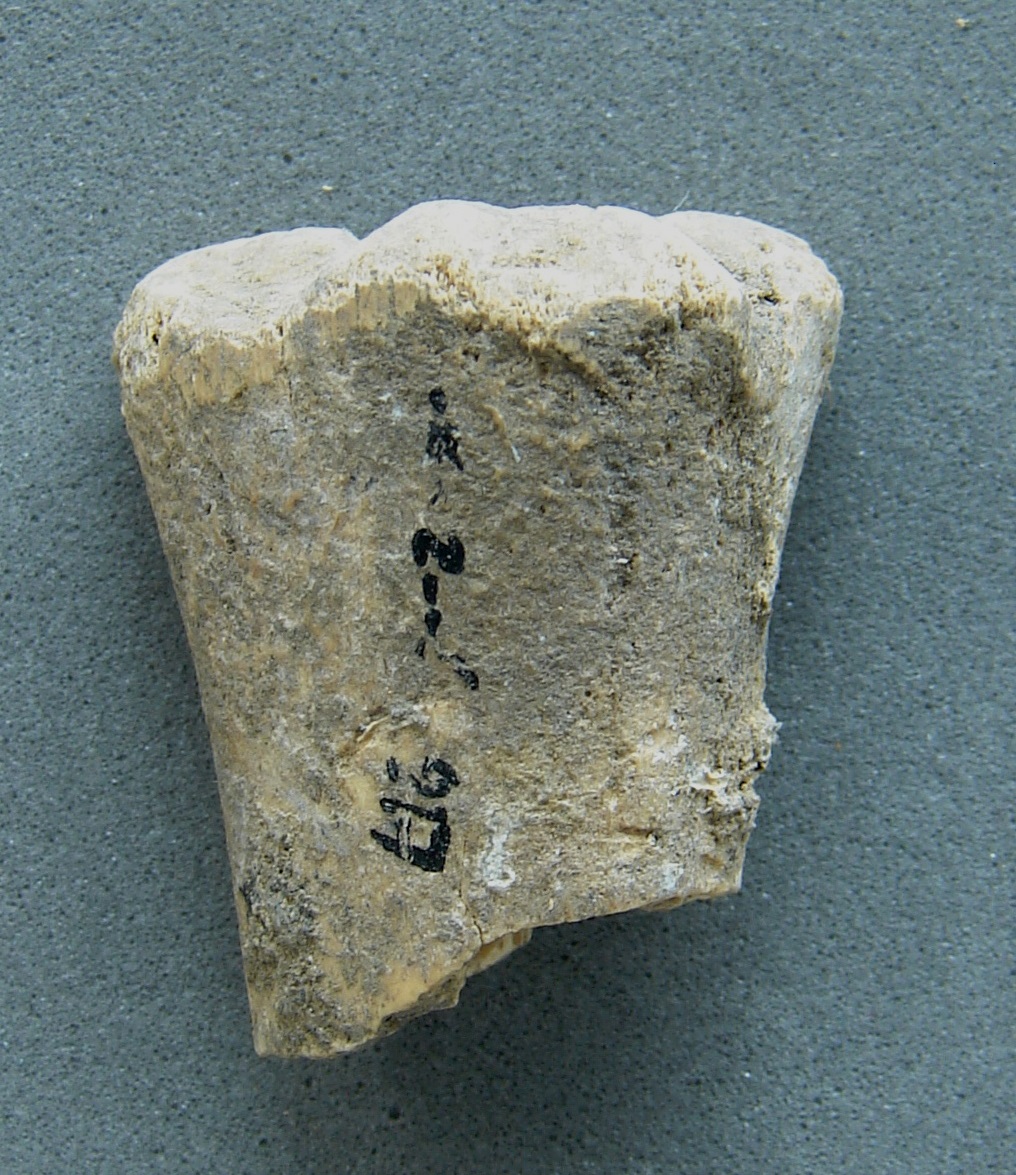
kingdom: Animalia
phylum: Chordata
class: Mammalia
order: Carnivora
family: Felidae
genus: Panthera
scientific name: Panthera leo
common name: Lion
